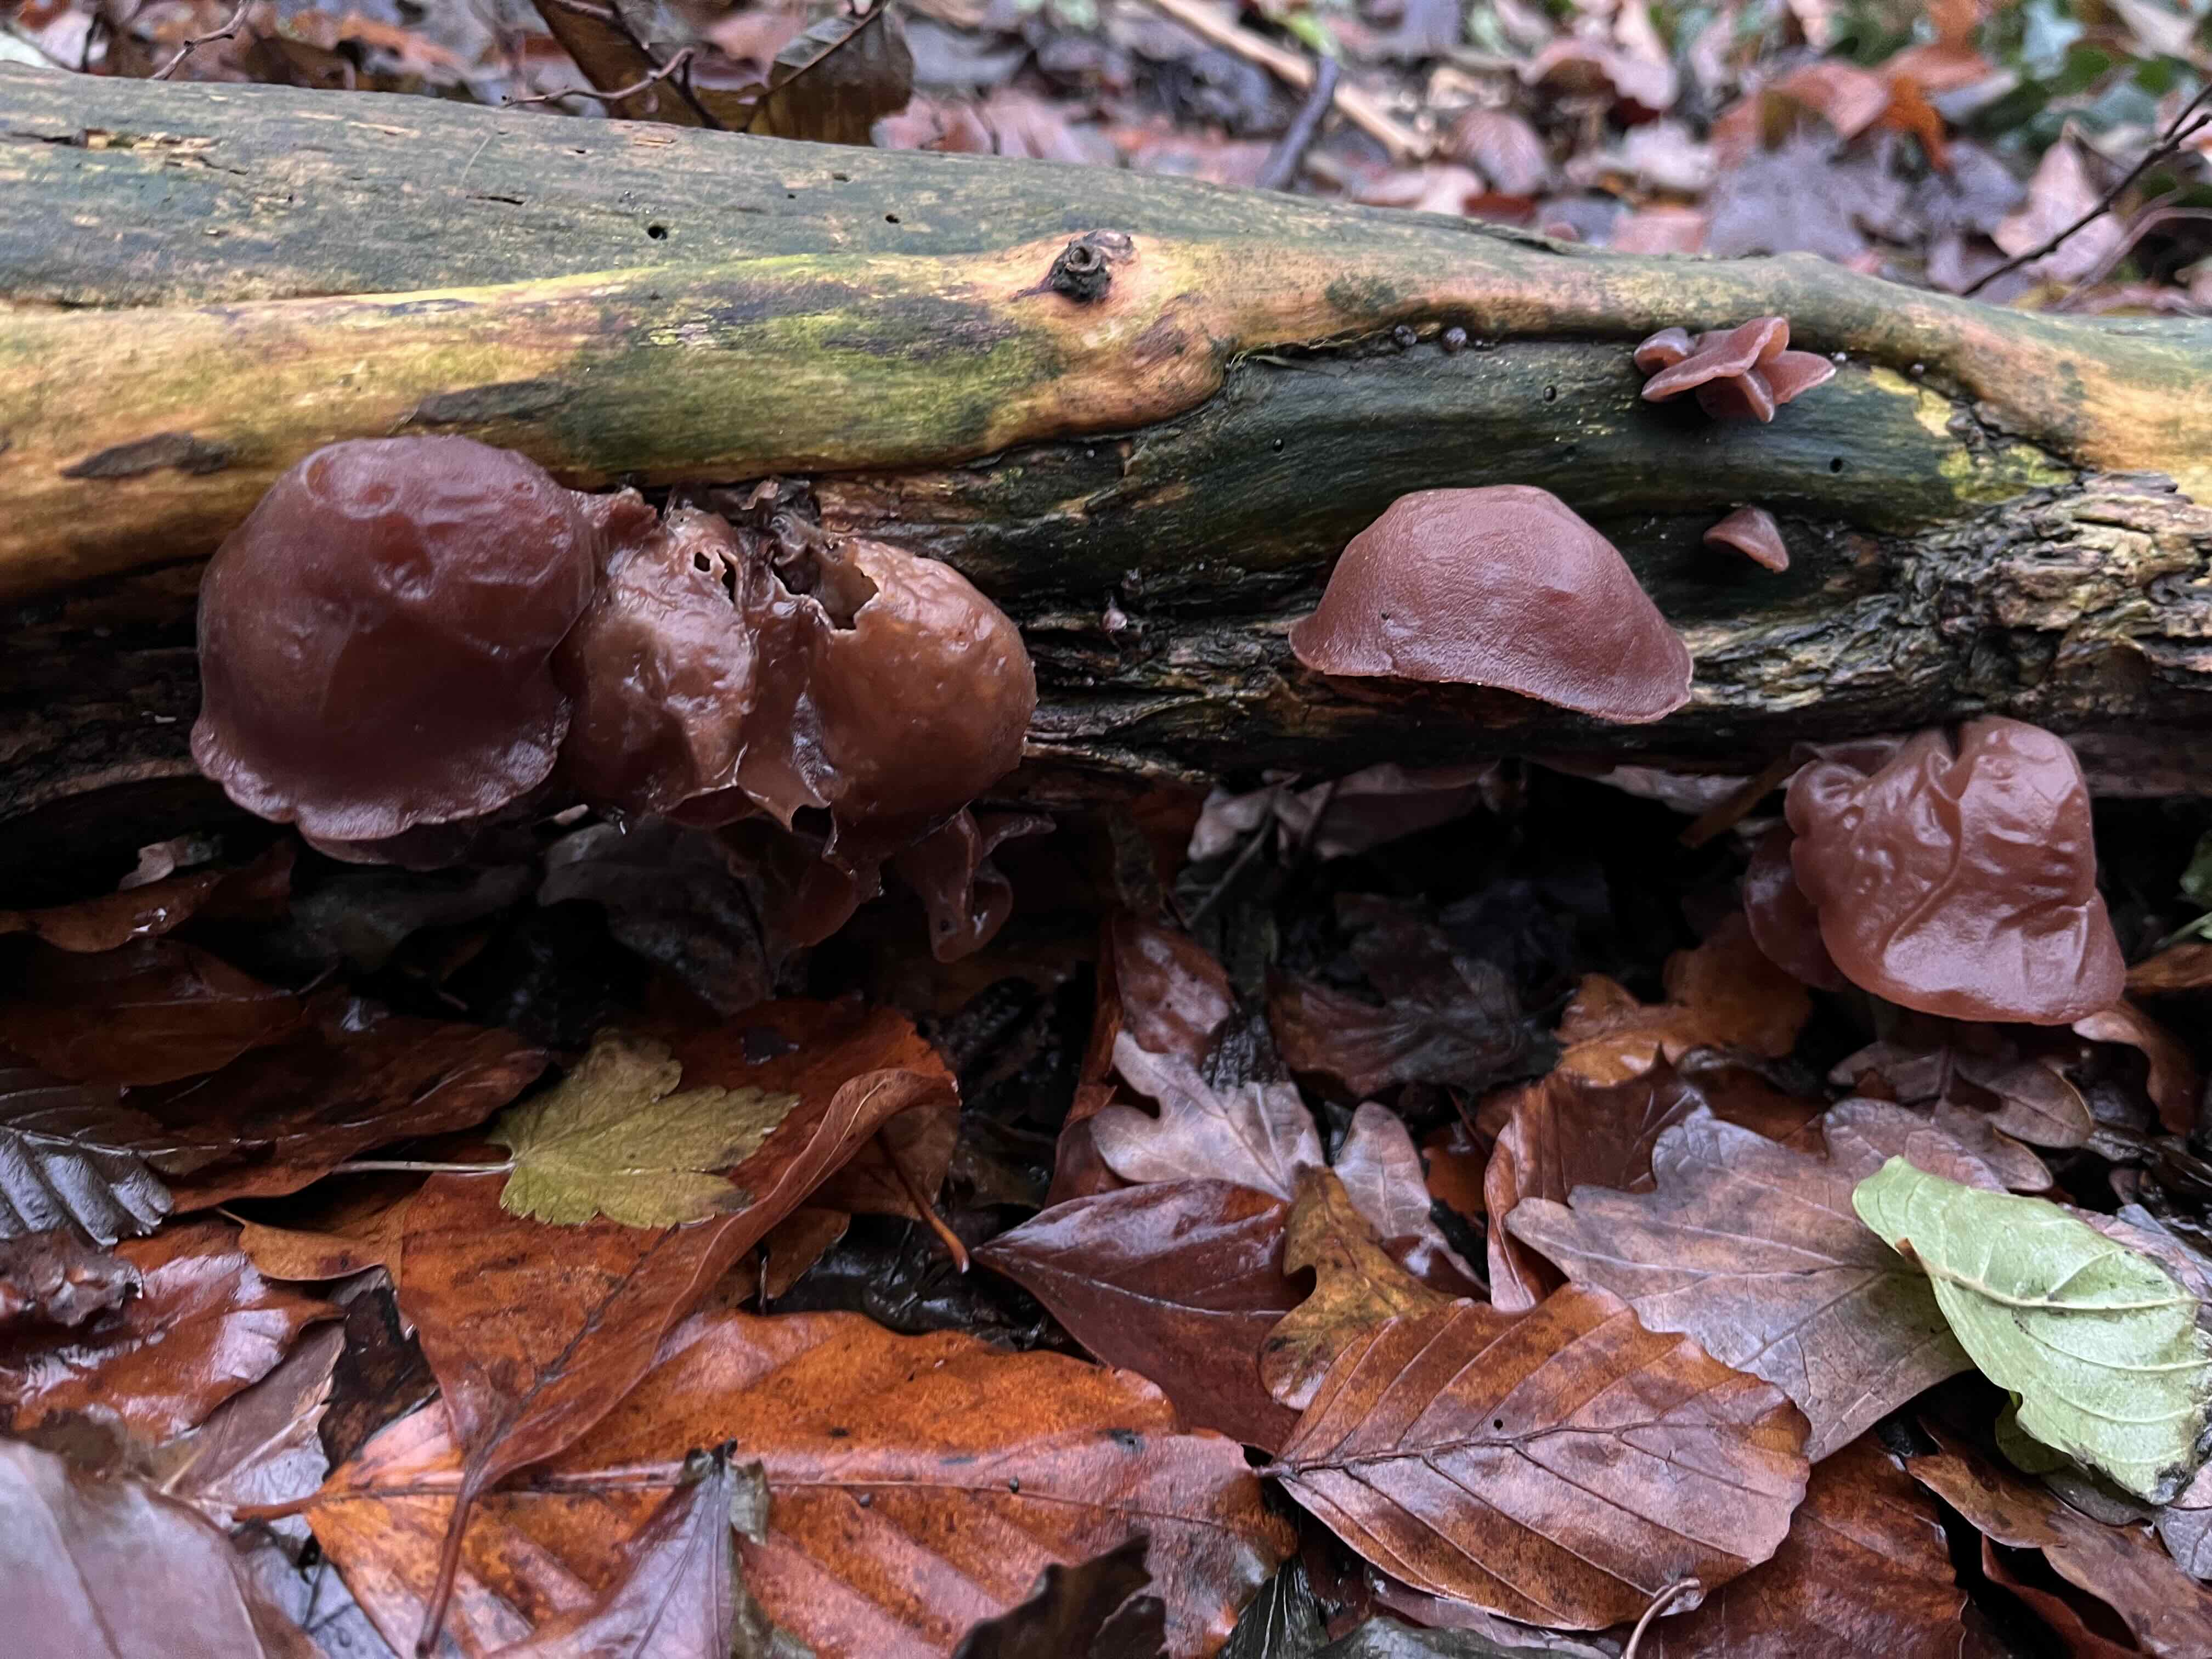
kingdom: Fungi
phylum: Basidiomycota
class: Agaricomycetes
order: Auriculariales
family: Auriculariaceae
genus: Auricularia
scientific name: Auricularia auricula-judae
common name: almindelig judasøre
